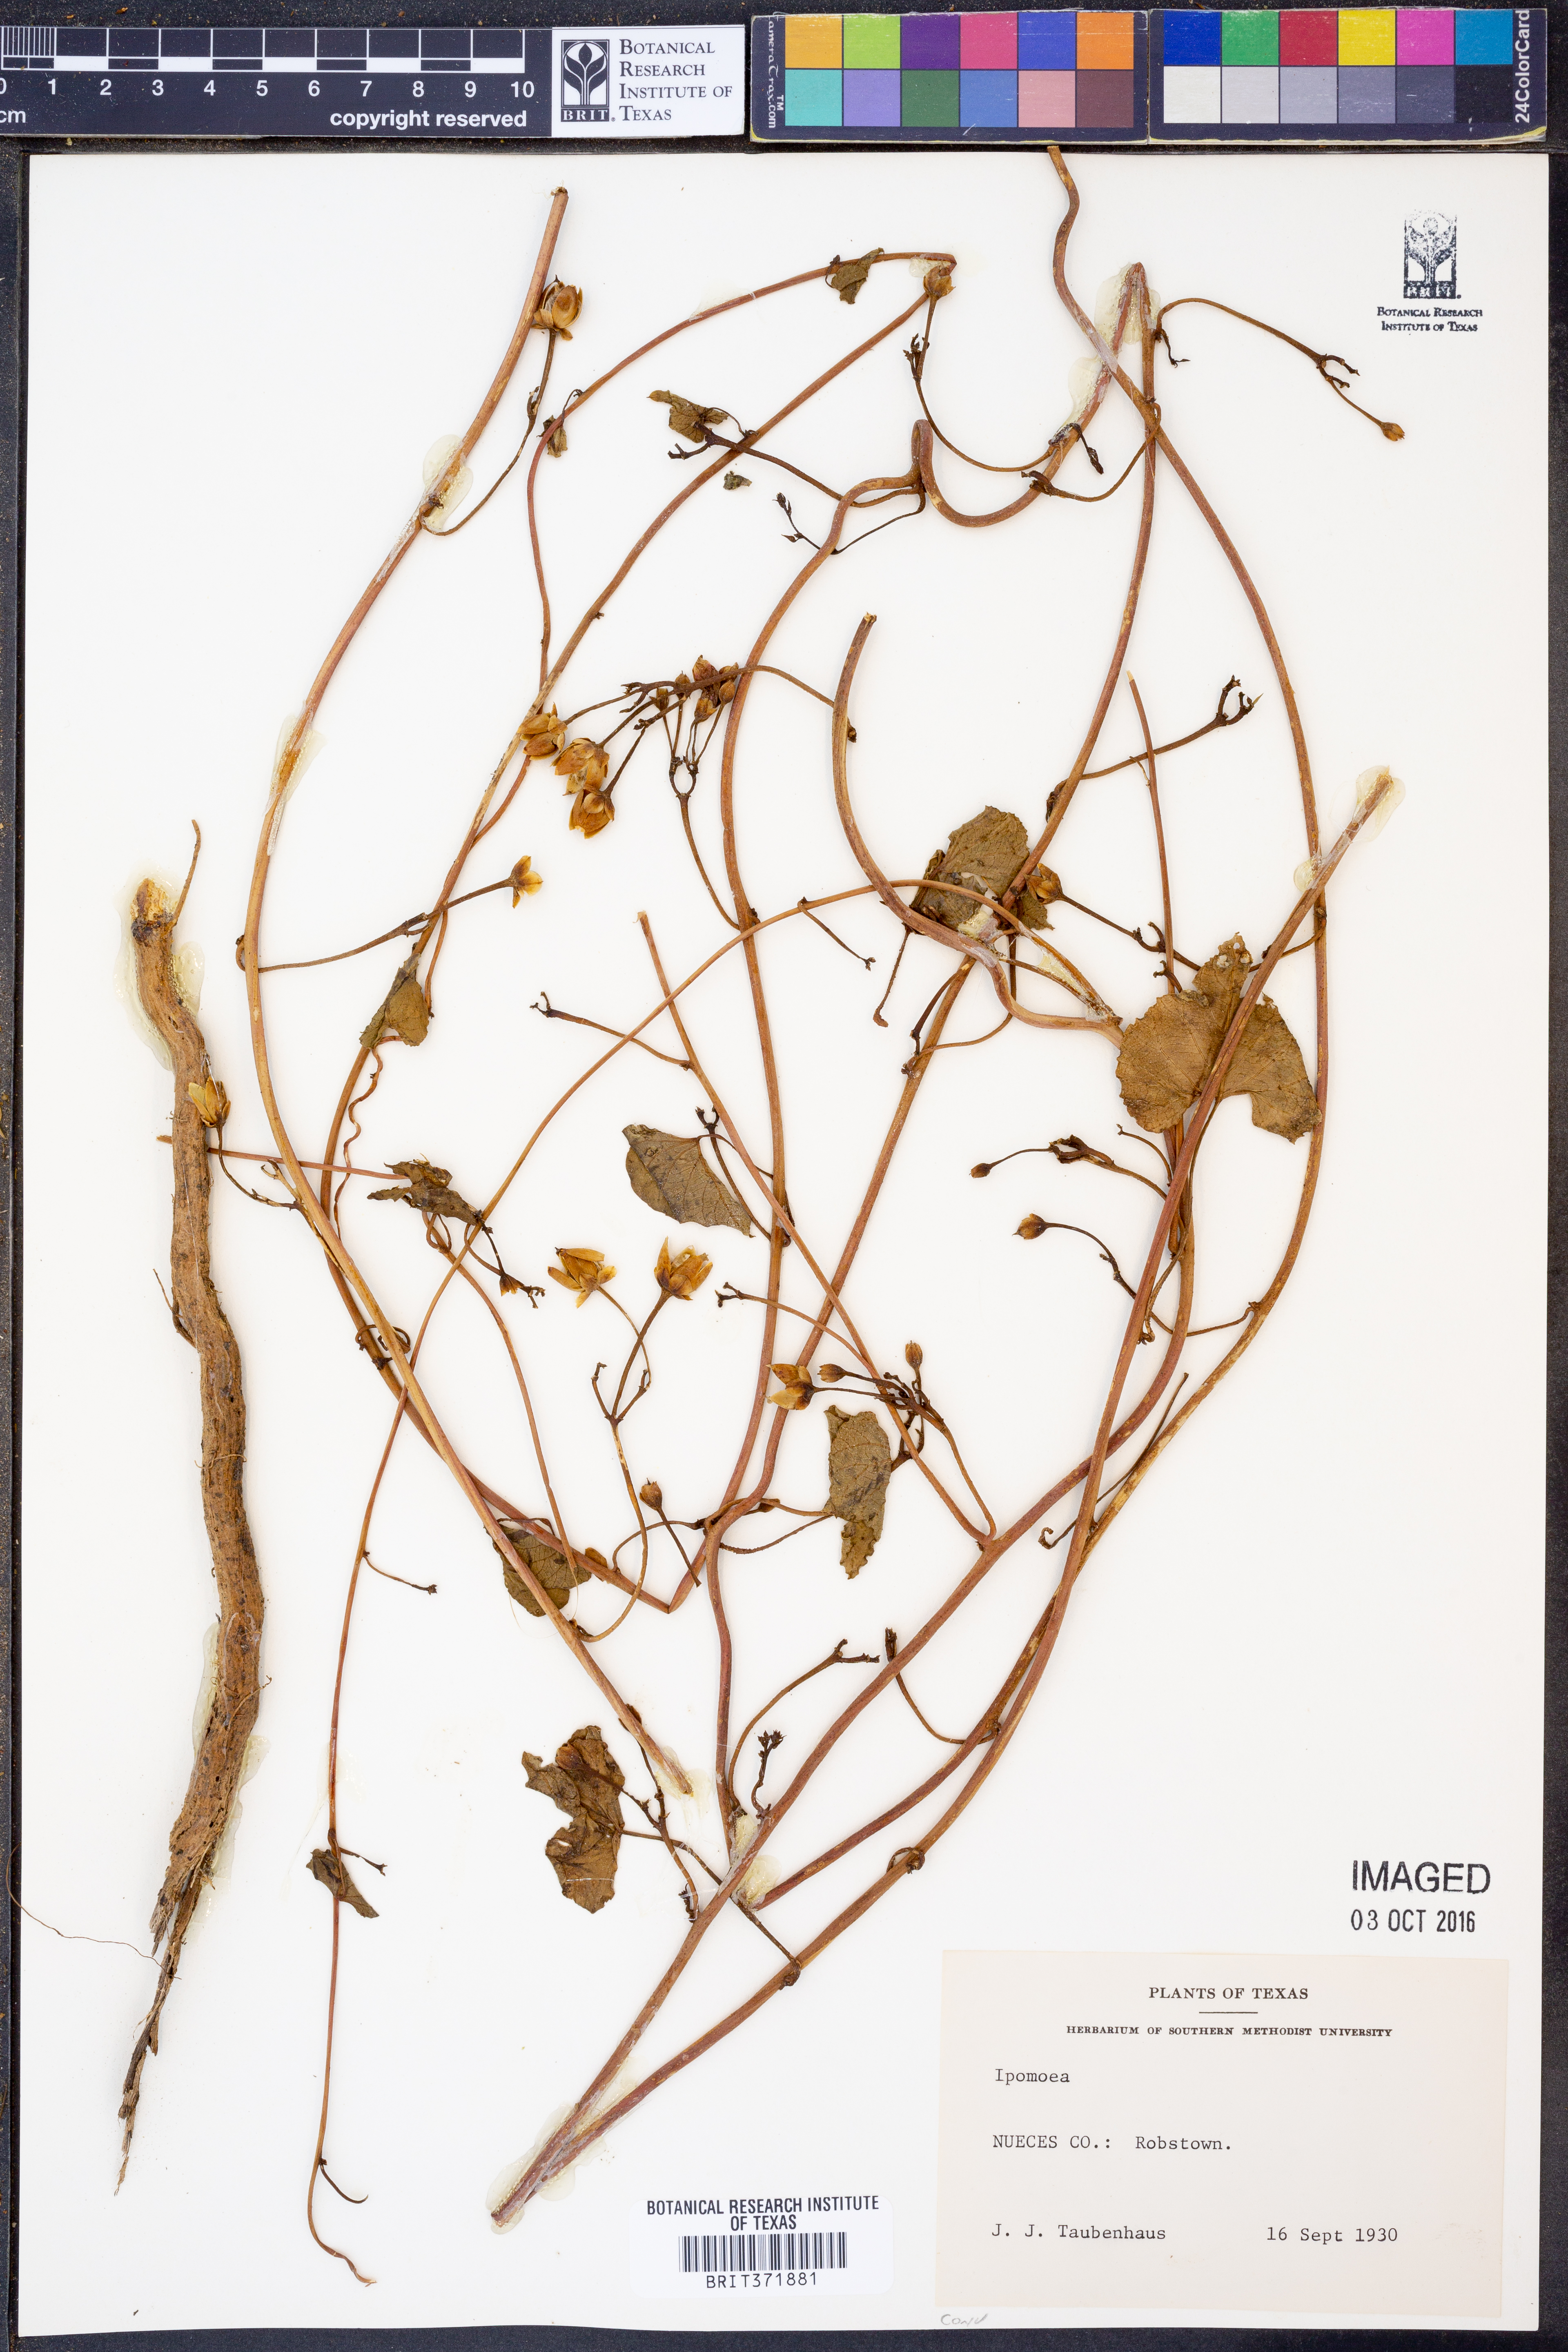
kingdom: Plantae
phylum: Tracheophyta
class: Magnoliopsida
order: Solanales
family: Convolvulaceae
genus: Ipomoea
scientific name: Ipomoea
